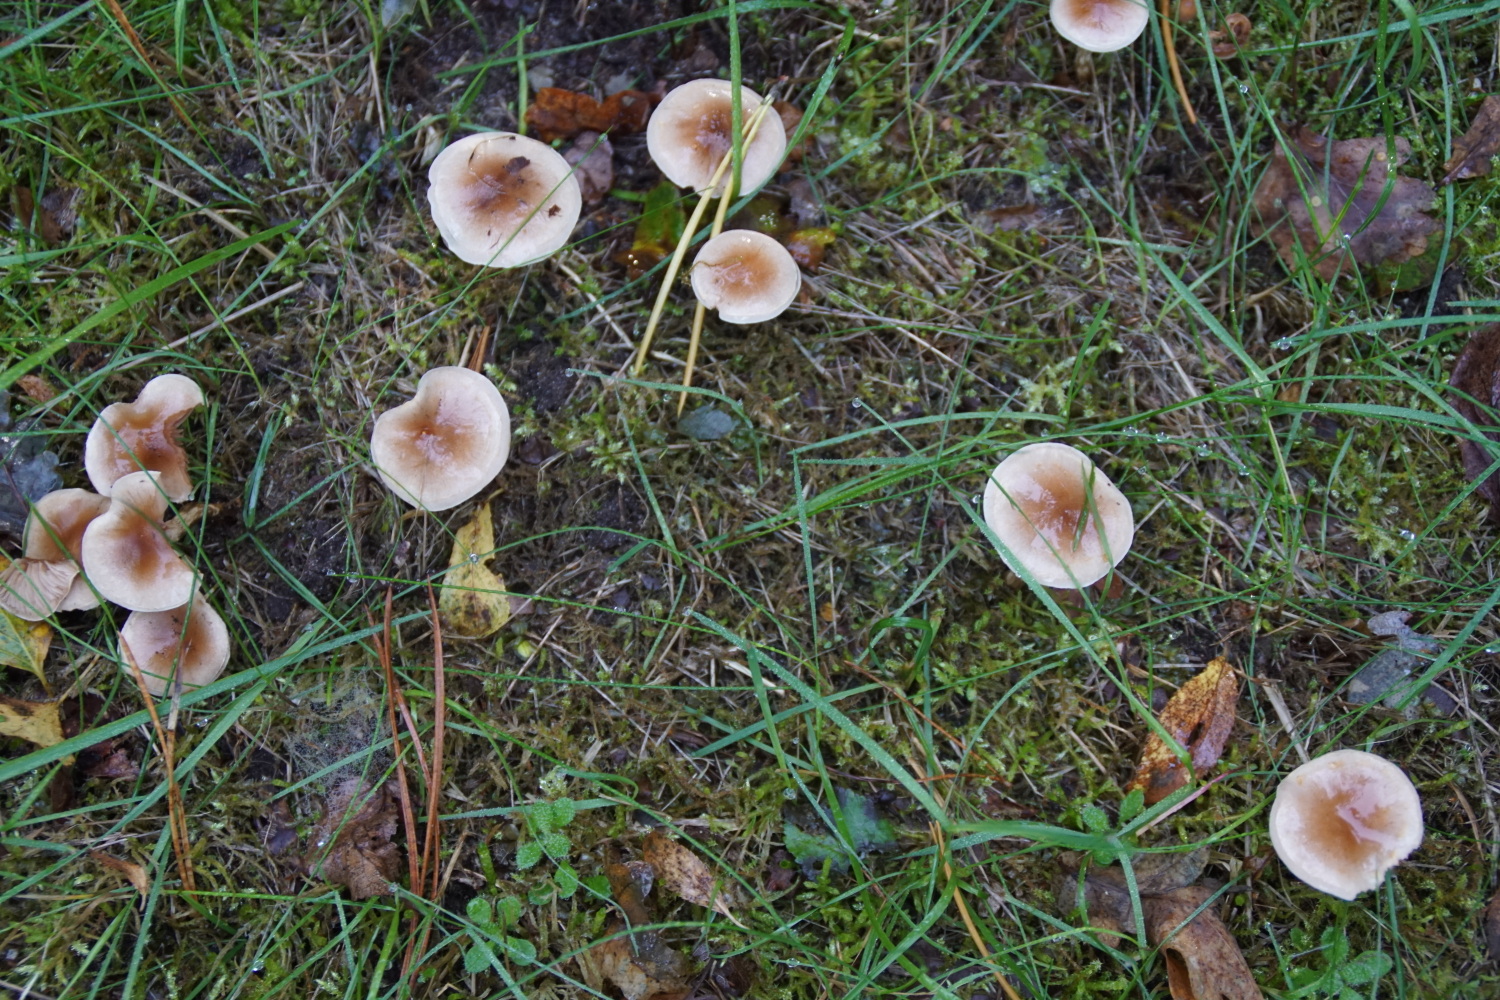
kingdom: Fungi
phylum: Basidiomycota
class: Agaricomycetes
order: Agaricales
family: Hymenogastraceae
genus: Hebeloma
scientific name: Hebeloma mesophaeum
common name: lerbrun tåreblad
